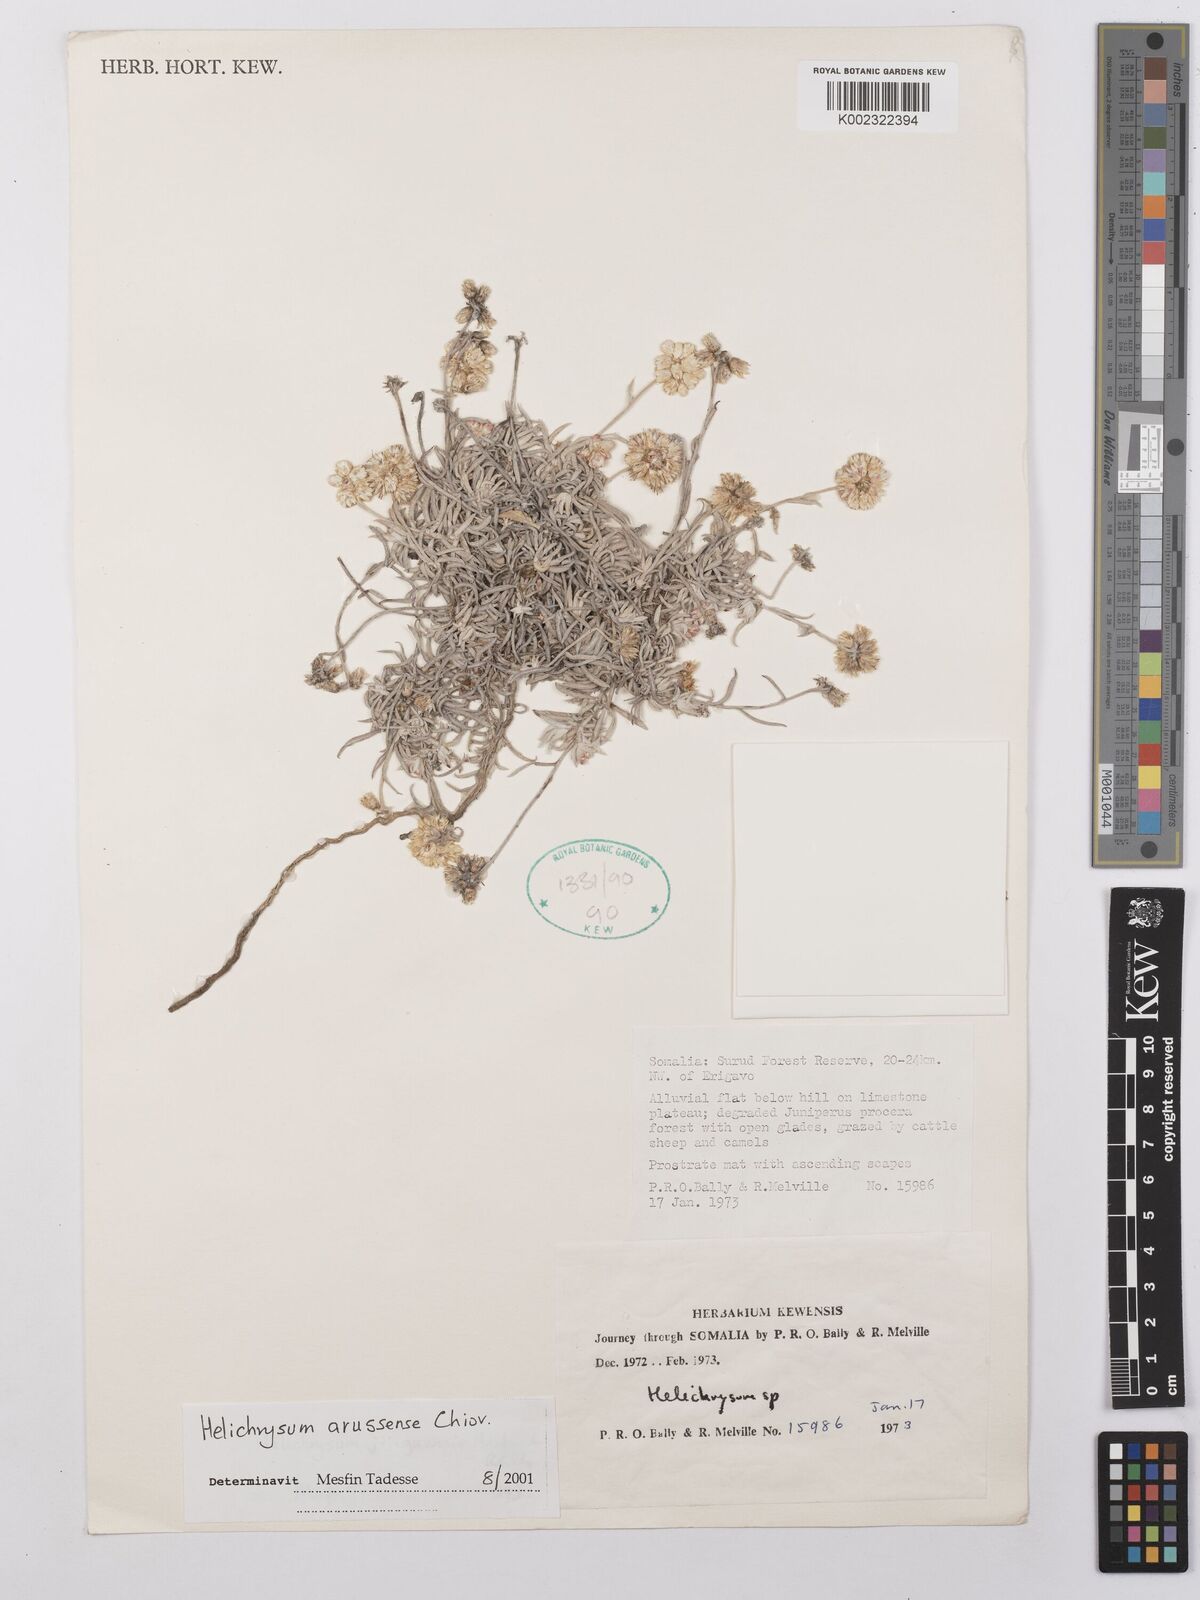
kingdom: Plantae
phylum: Tracheophyta
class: Magnoliopsida
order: Asterales
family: Asteraceae
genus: Helichrysum
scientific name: Helichrysum arussense
